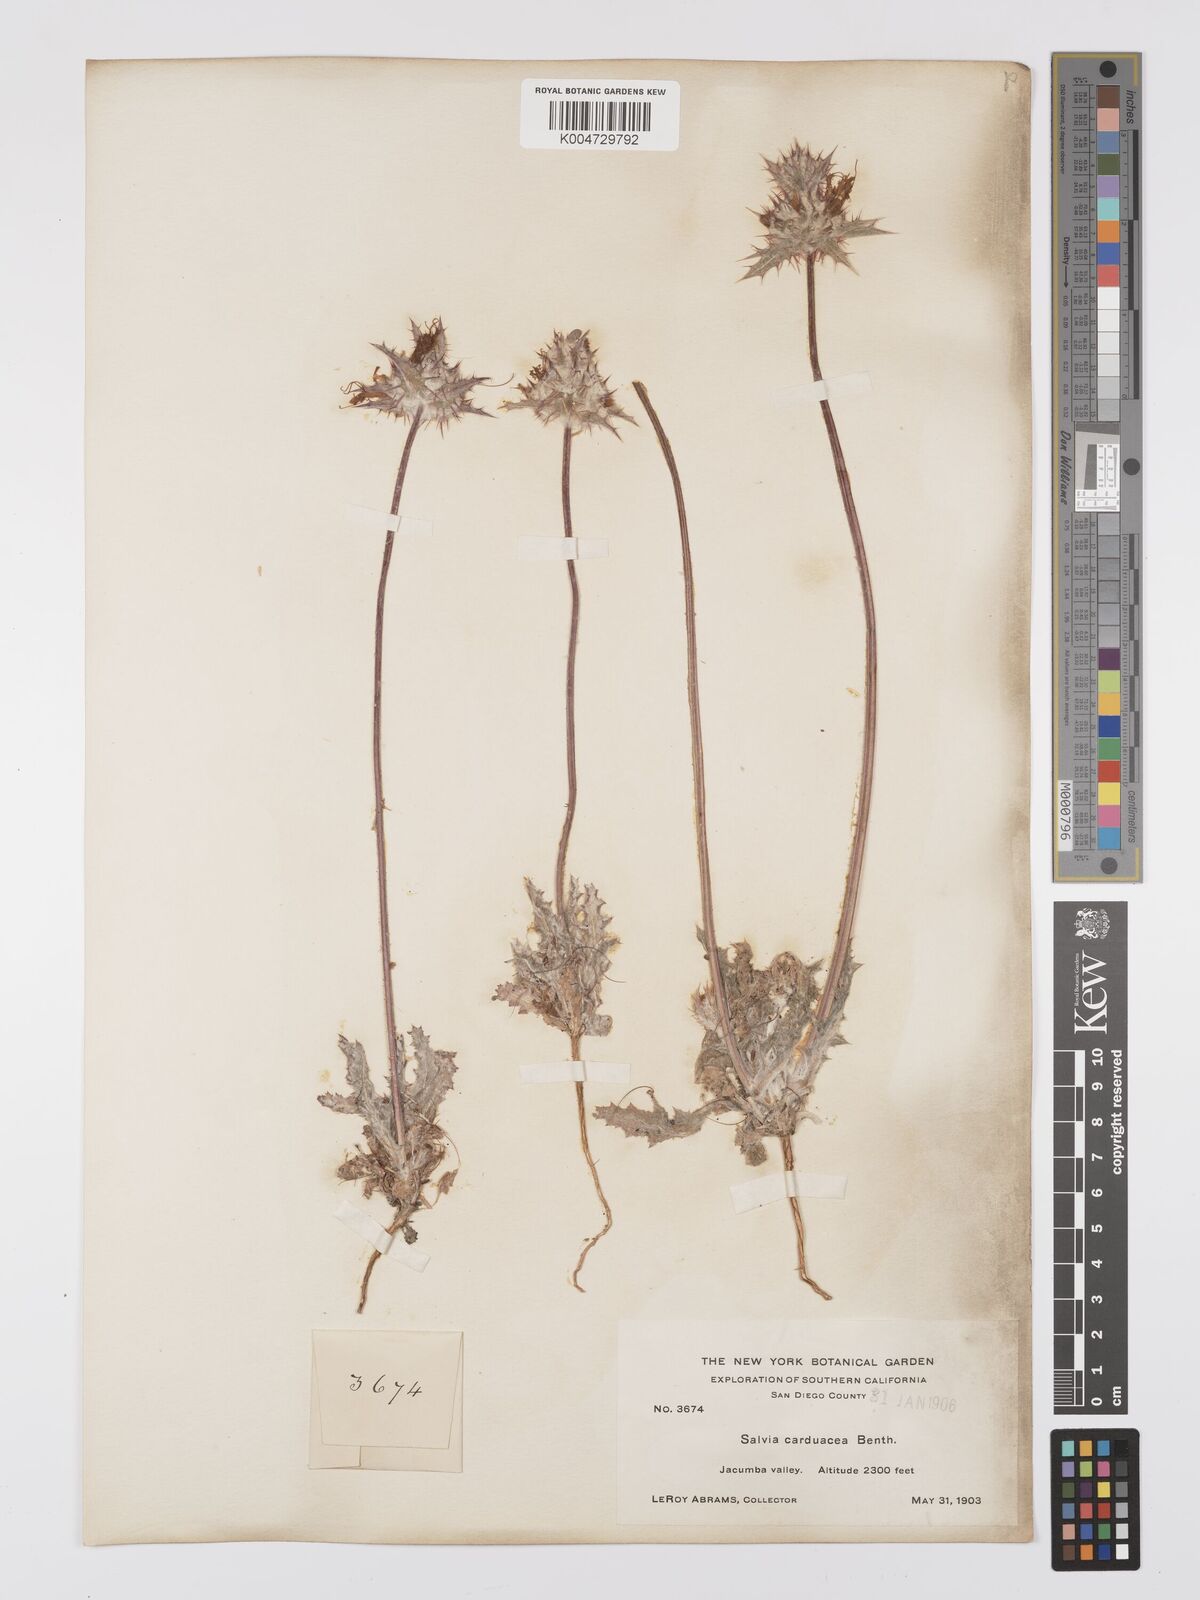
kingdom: Plantae
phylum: Tracheophyta
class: Magnoliopsida
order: Lamiales
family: Lamiaceae
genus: Salvia
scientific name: Salvia carduacea
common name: Thistle sage
